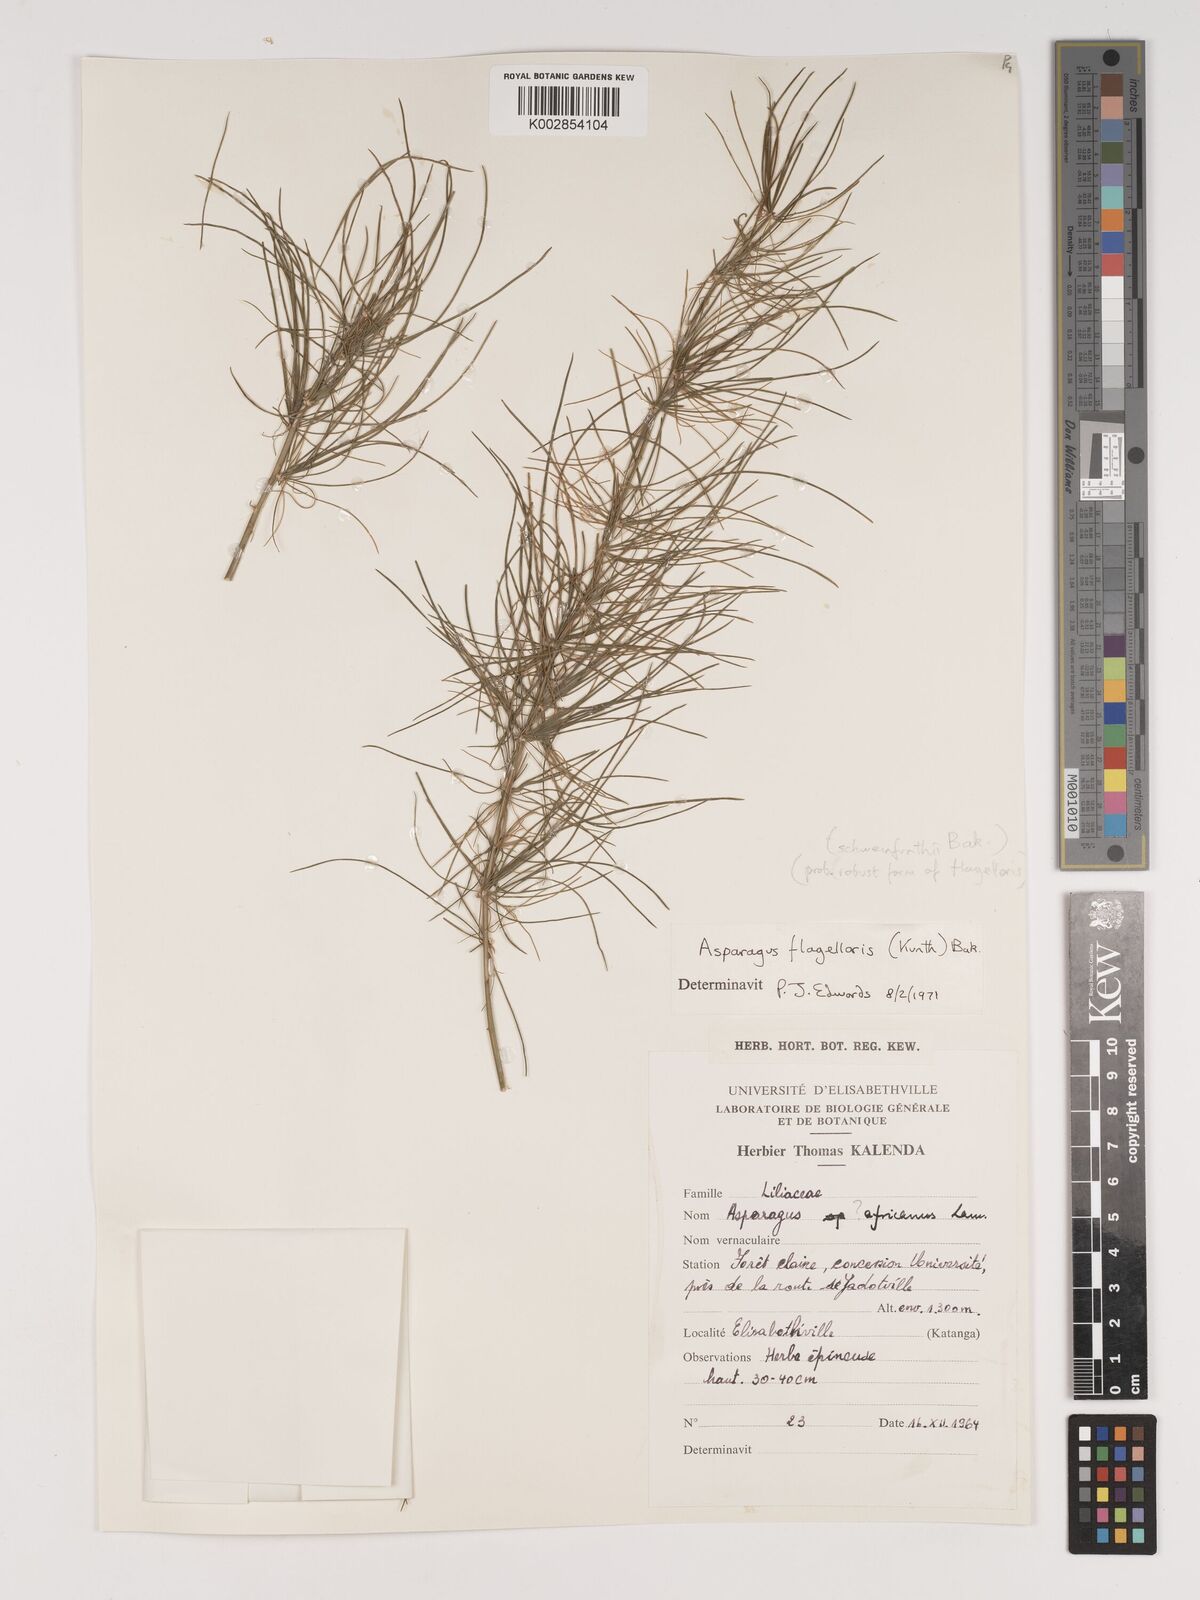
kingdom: Plantae
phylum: Tracheophyta
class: Liliopsida
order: Asparagales
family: Asparagaceae
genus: Asparagus
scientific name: Asparagus flagellaris
